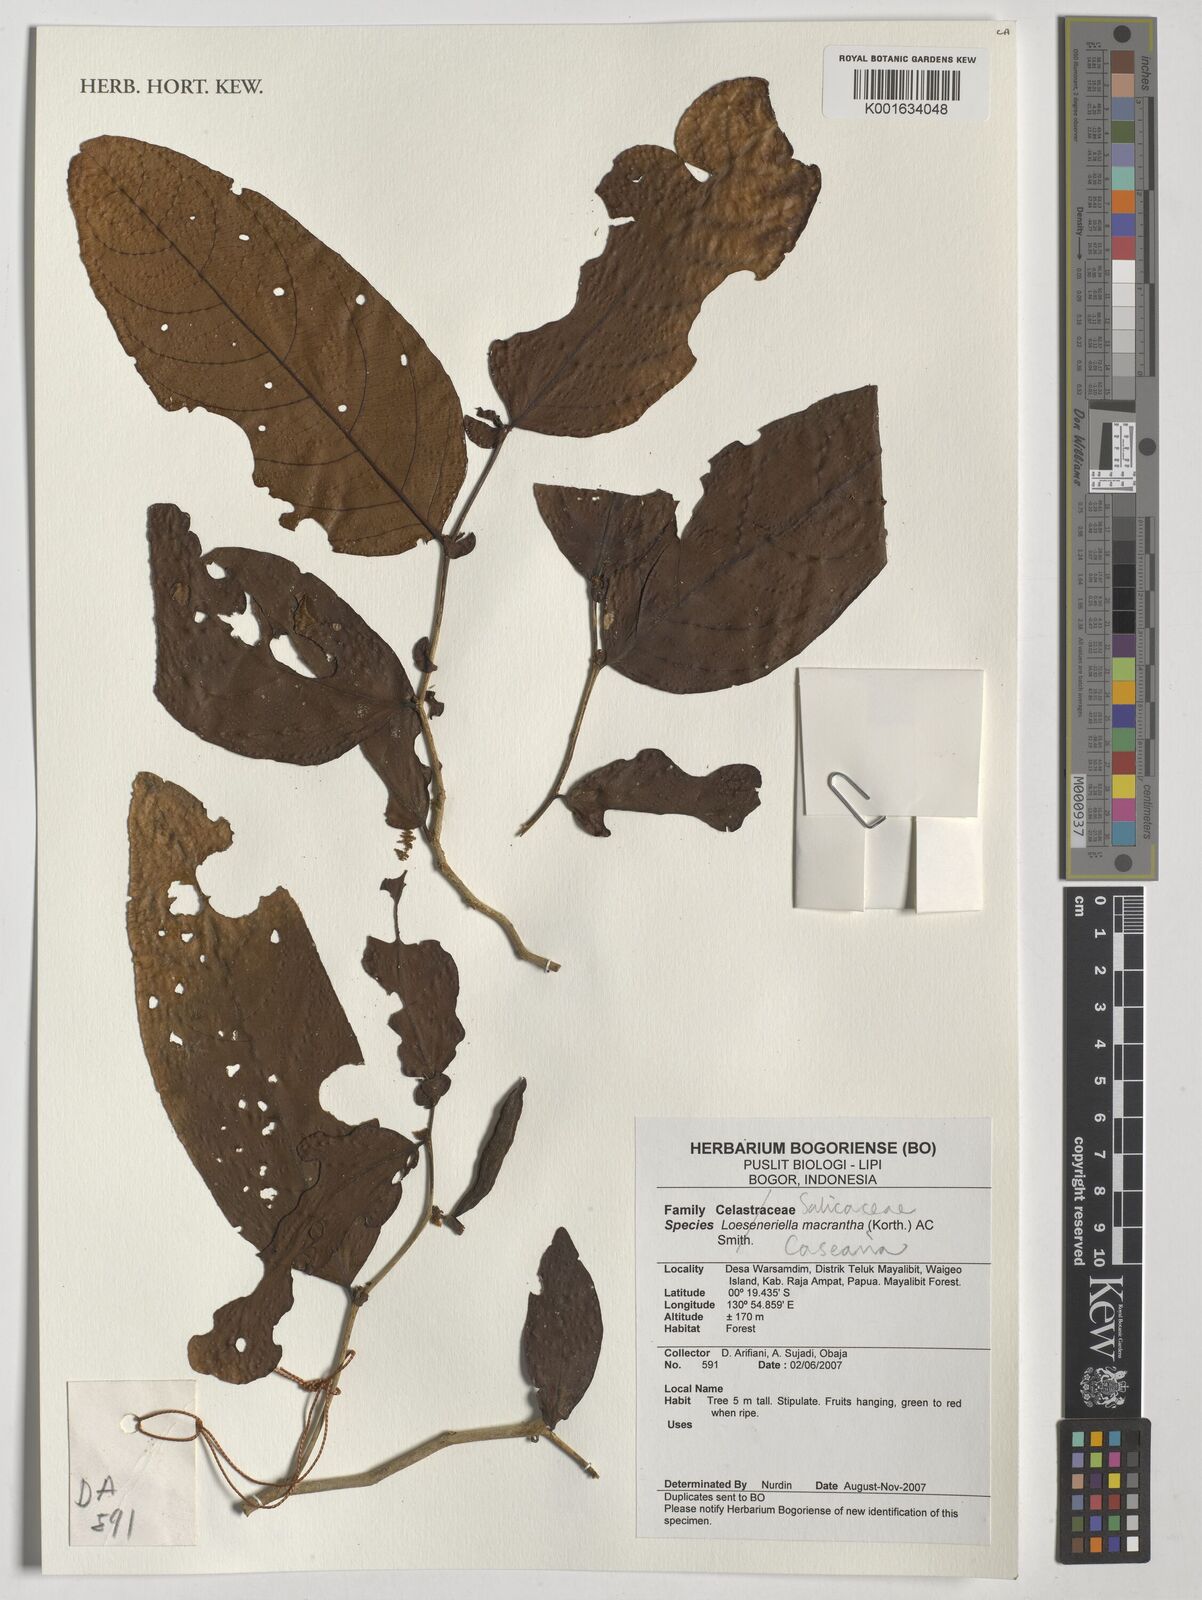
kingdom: Plantae
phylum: Tracheophyta
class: Magnoliopsida
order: Malpighiales
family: Salicaceae
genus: Casearia
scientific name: Casearia
